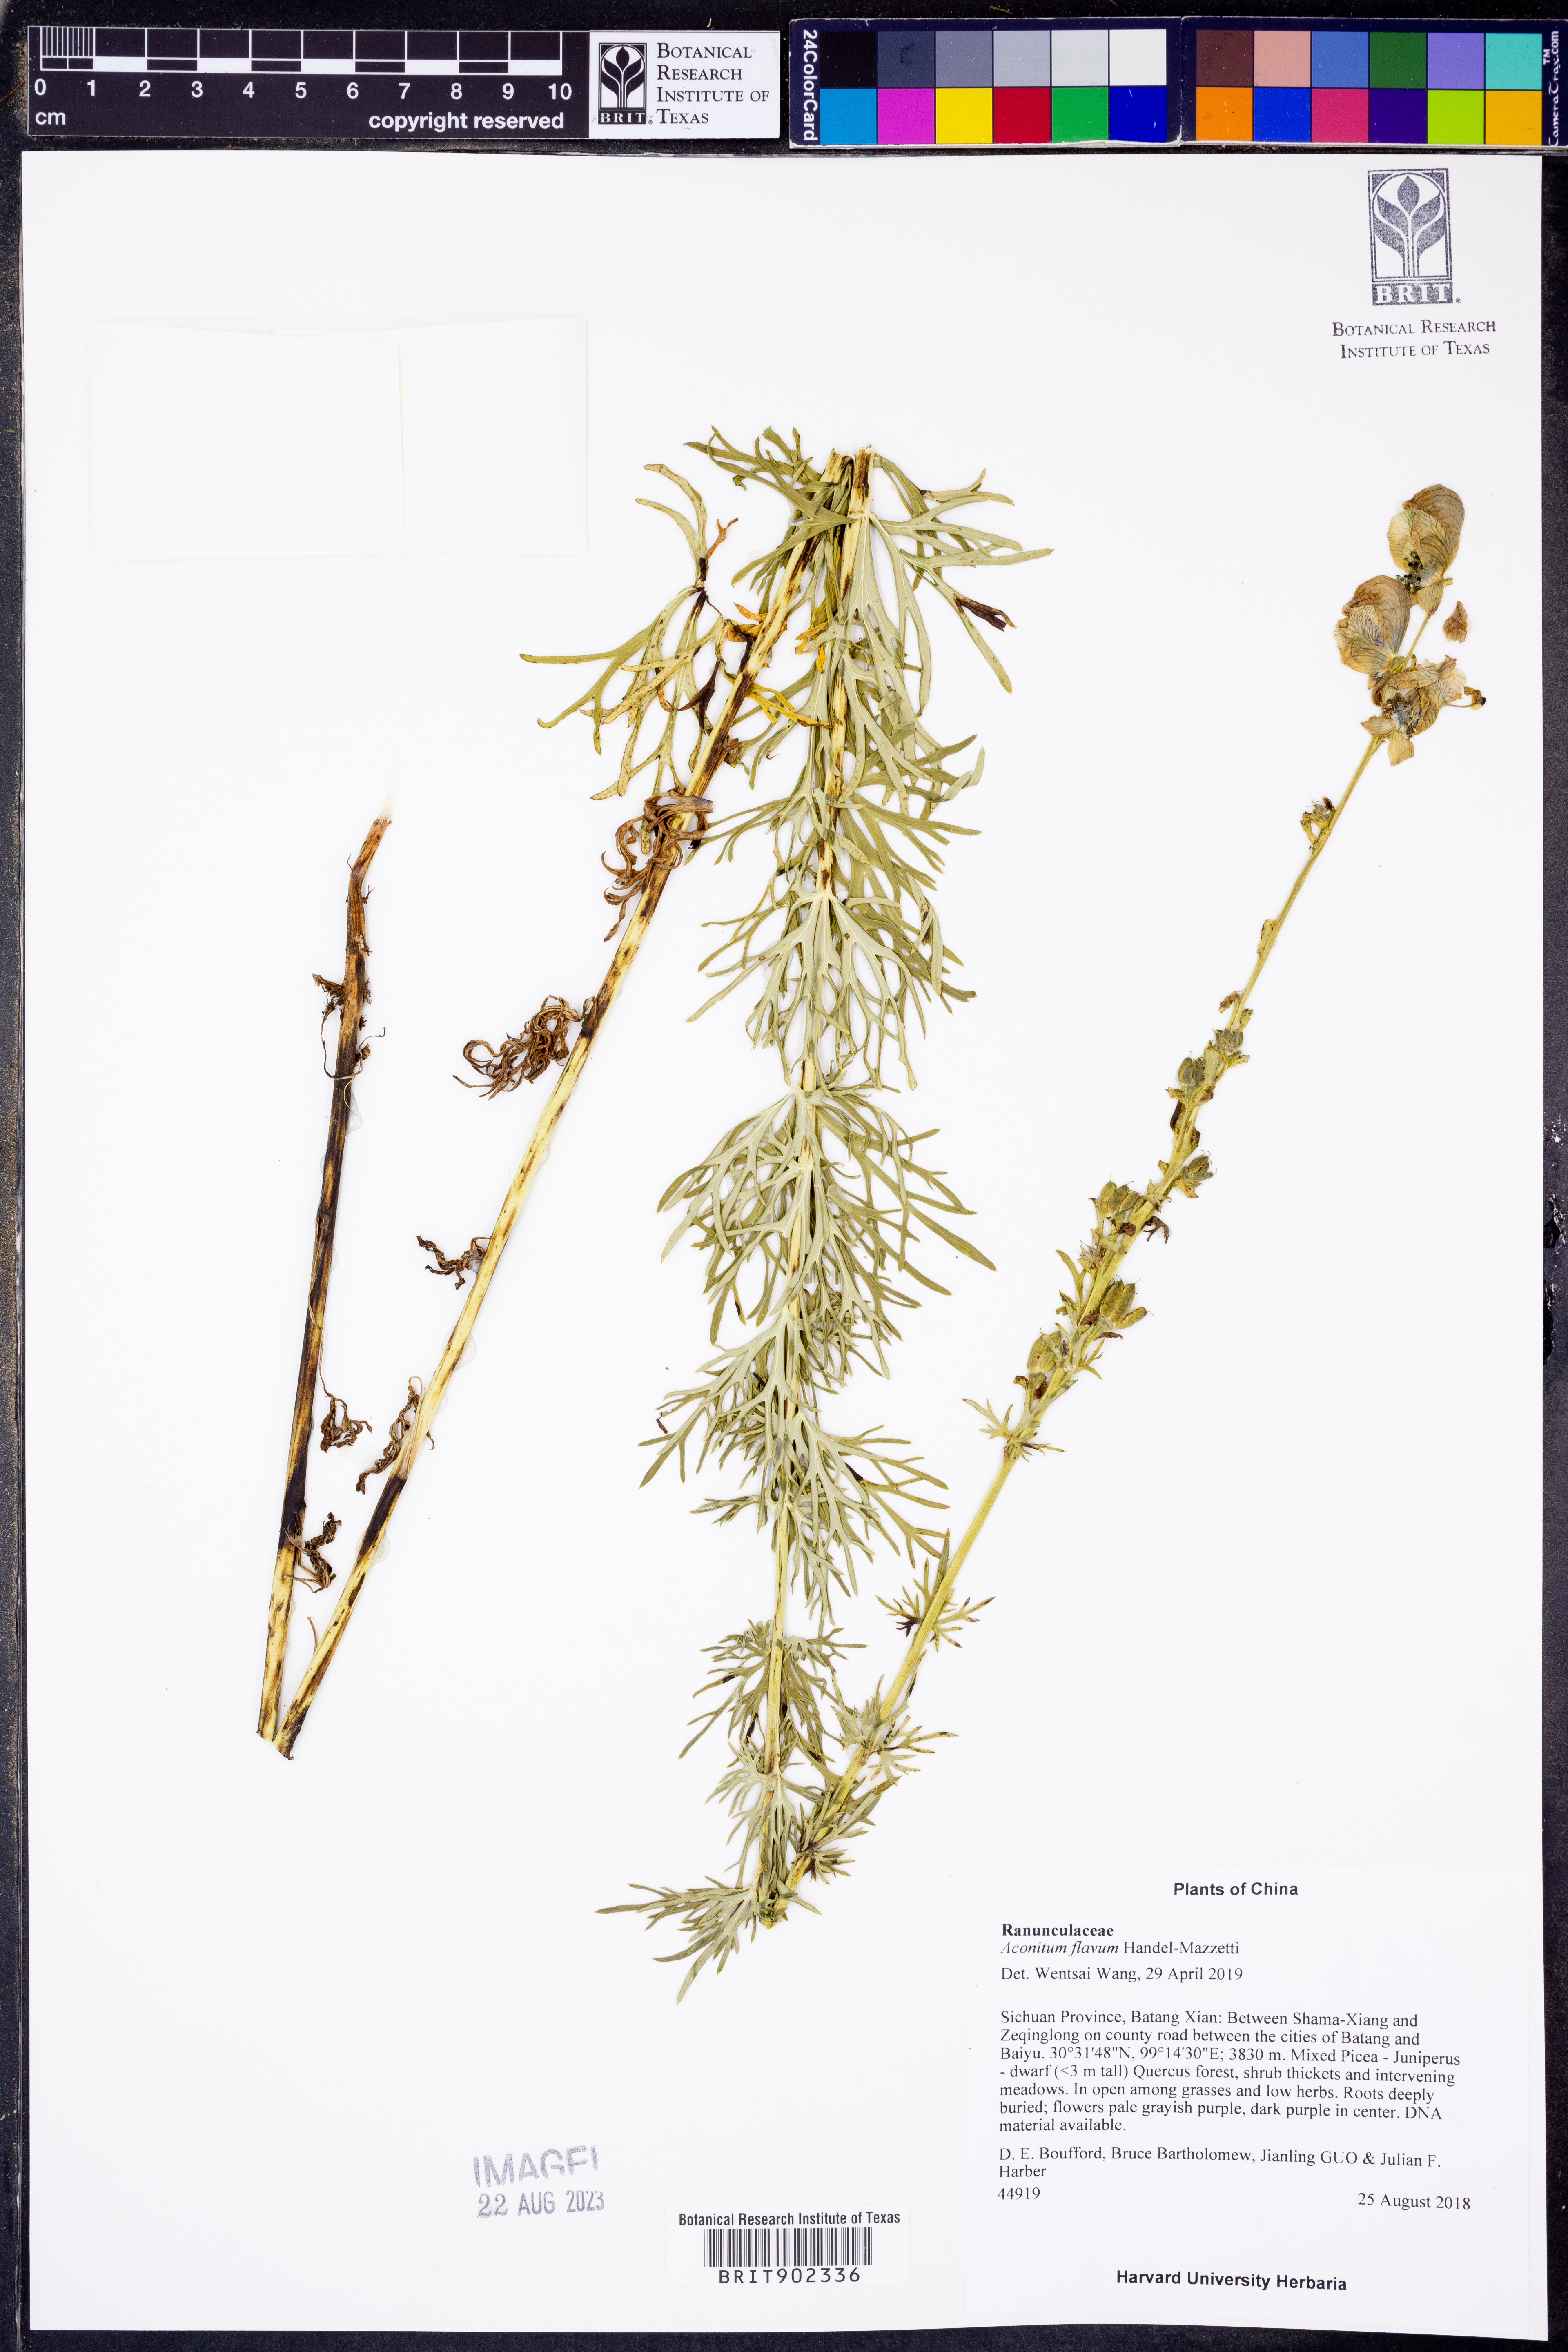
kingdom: Plantae
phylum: Tracheophyta
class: Magnoliopsida
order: Ranunculales
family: Ranunculaceae
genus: Aconitum
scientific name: Aconitum flavum
